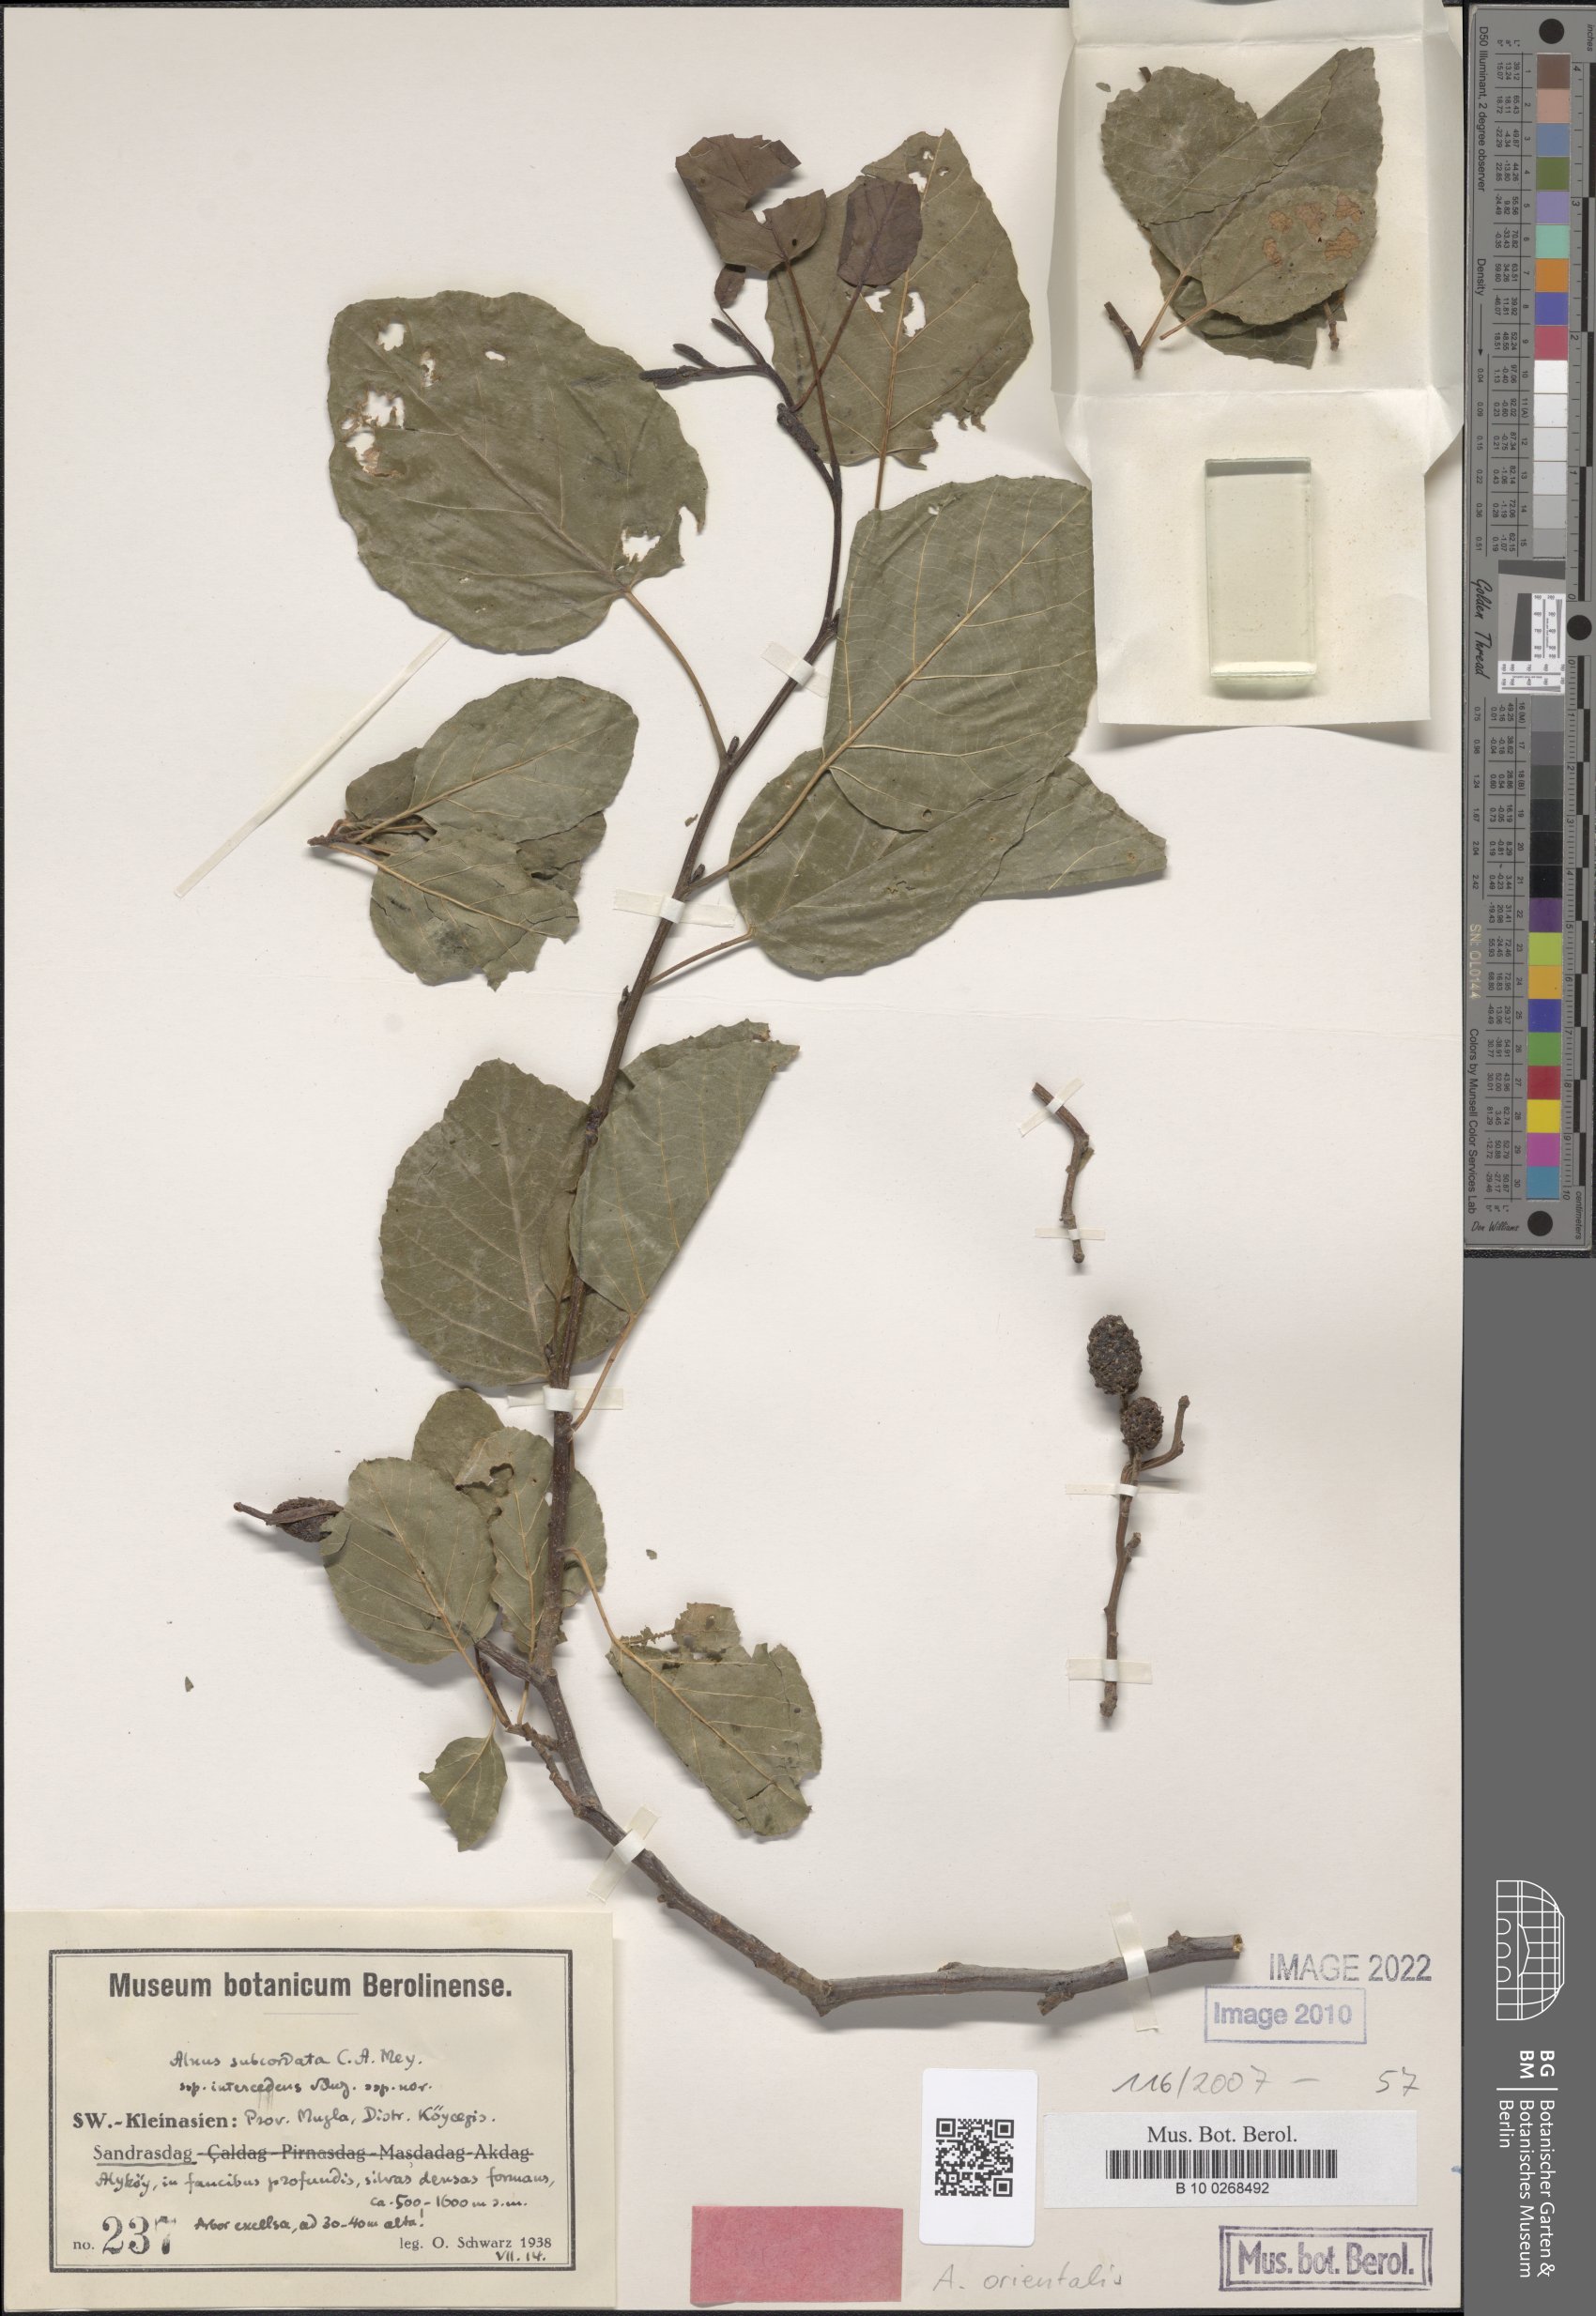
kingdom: Plantae
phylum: Tracheophyta
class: Magnoliopsida
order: Fagales
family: Betulaceae
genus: Alnus
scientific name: Alnus orientalis
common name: Oriental alder
